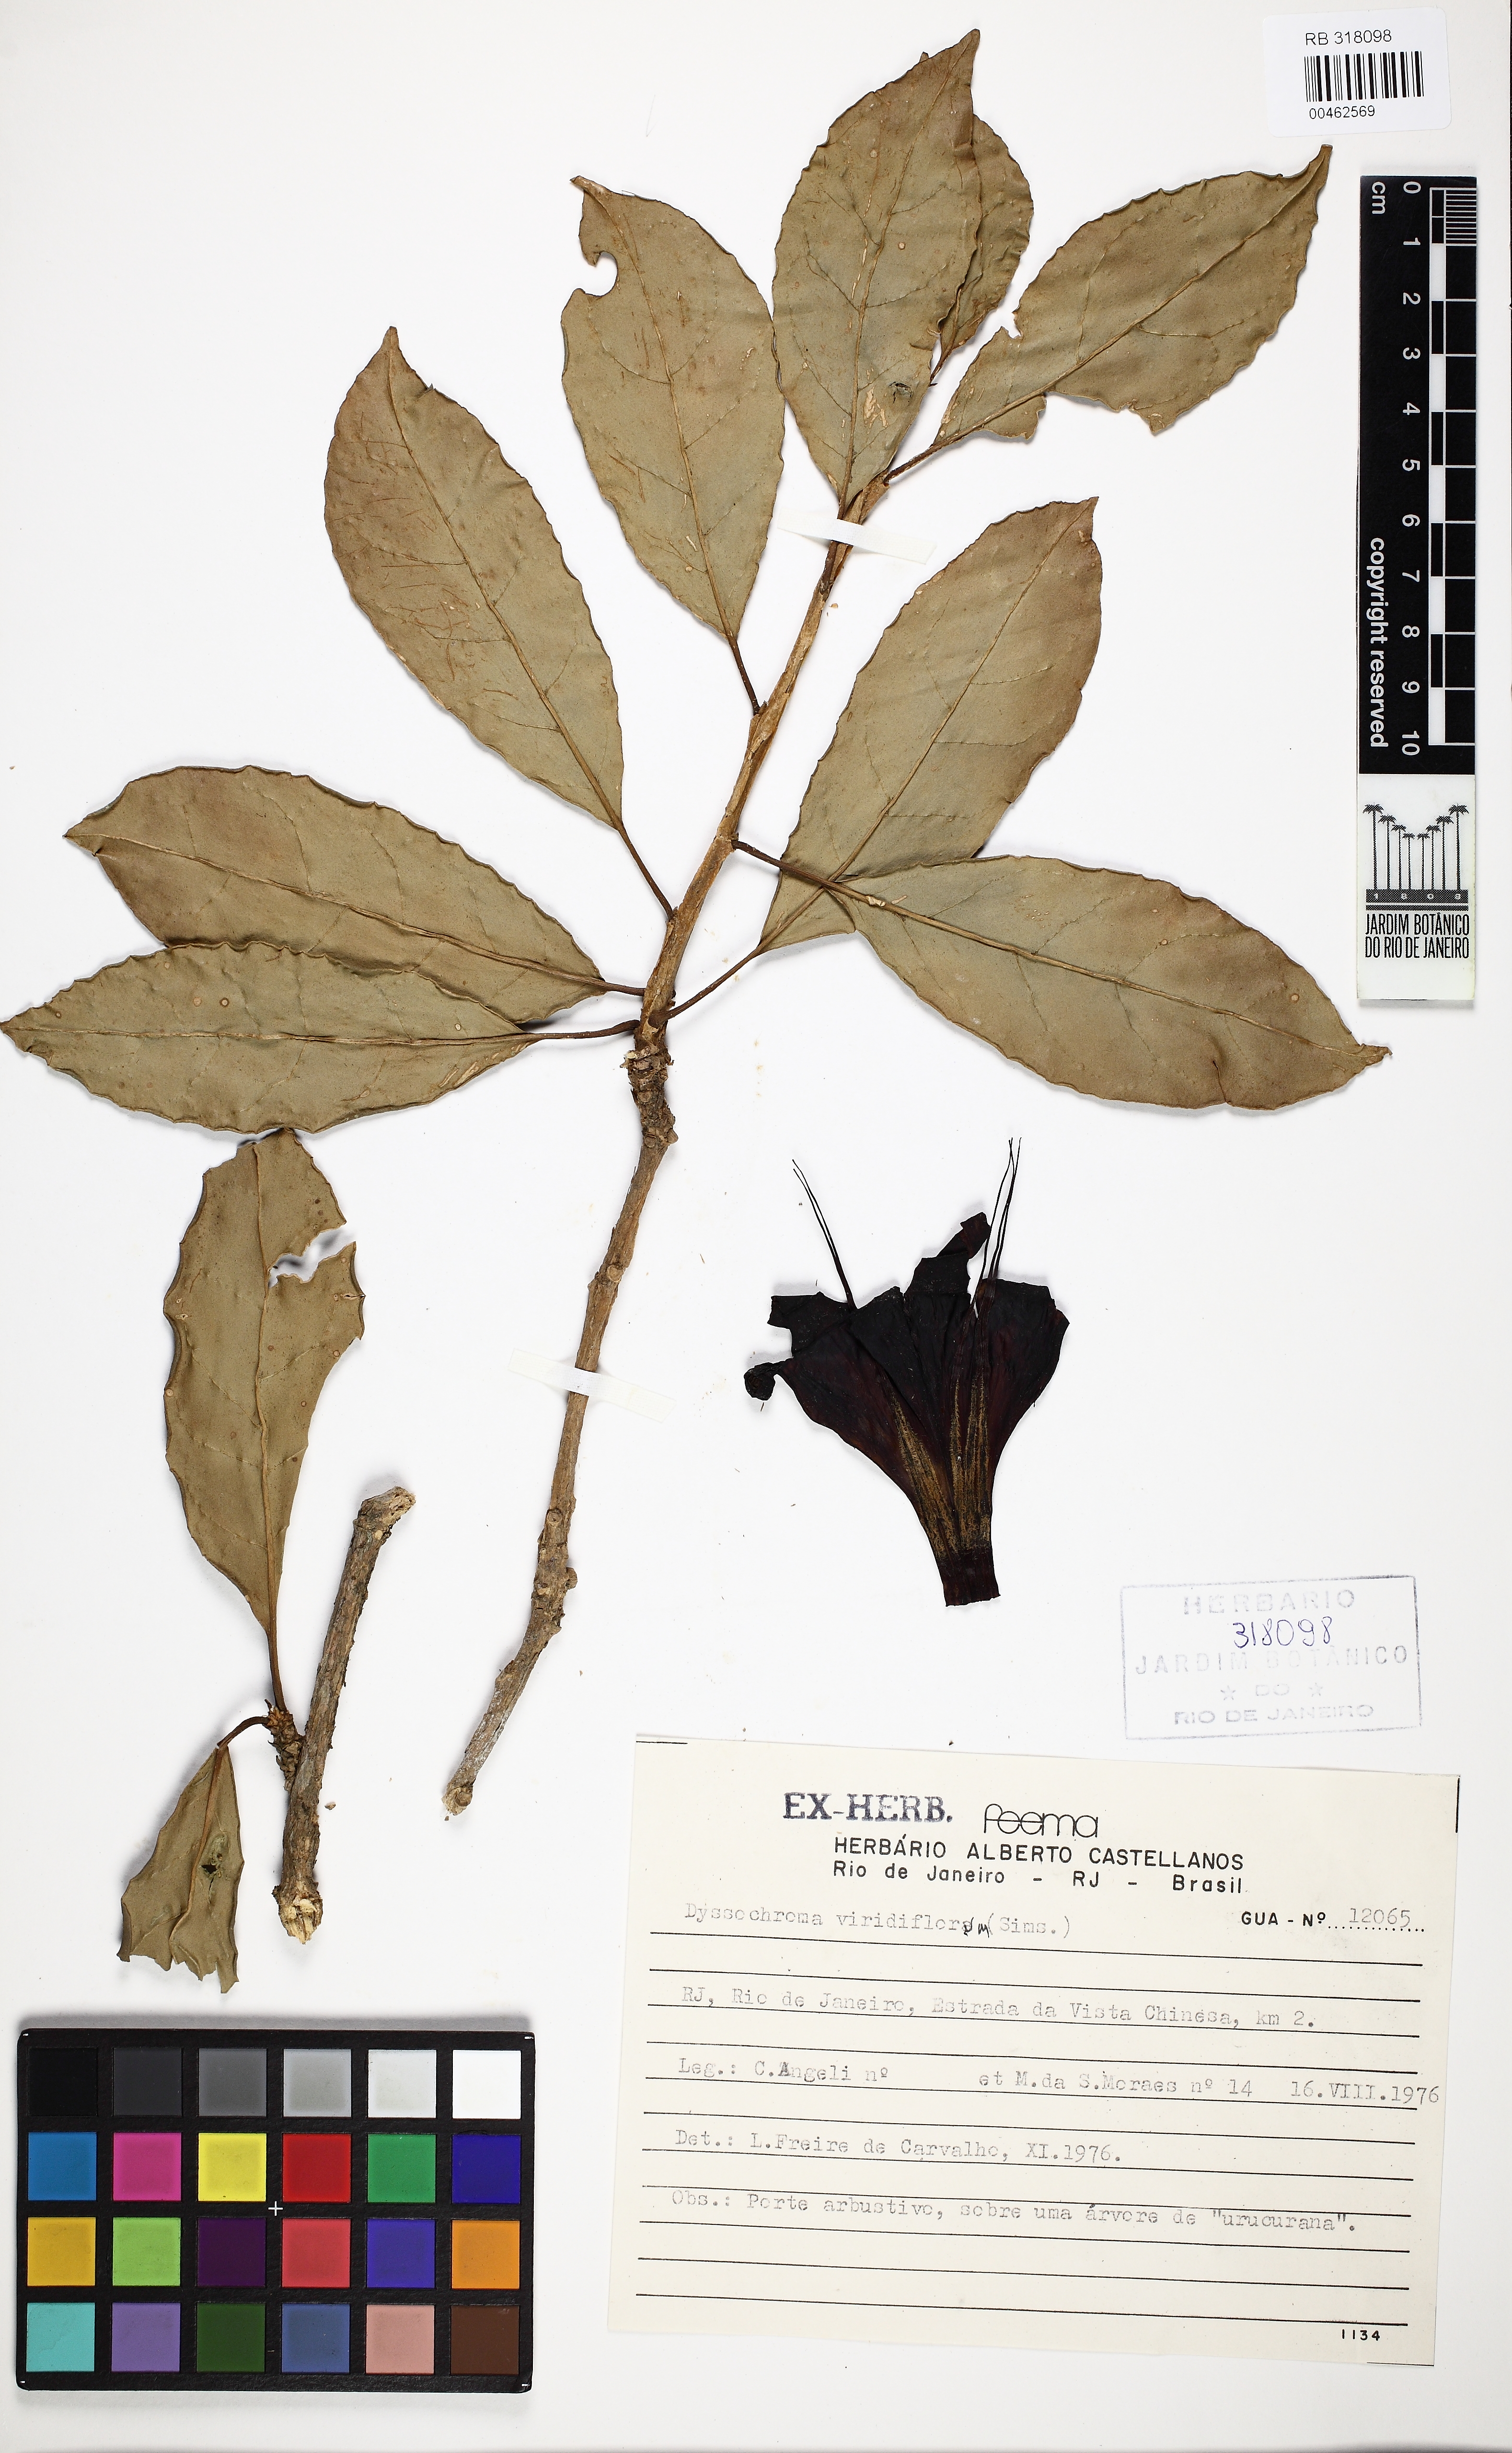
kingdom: Plantae
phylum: Tracheophyta
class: Magnoliopsida
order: Solanales
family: Solanaceae
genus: Dyssochroma
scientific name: Dyssochroma viridiflorum
